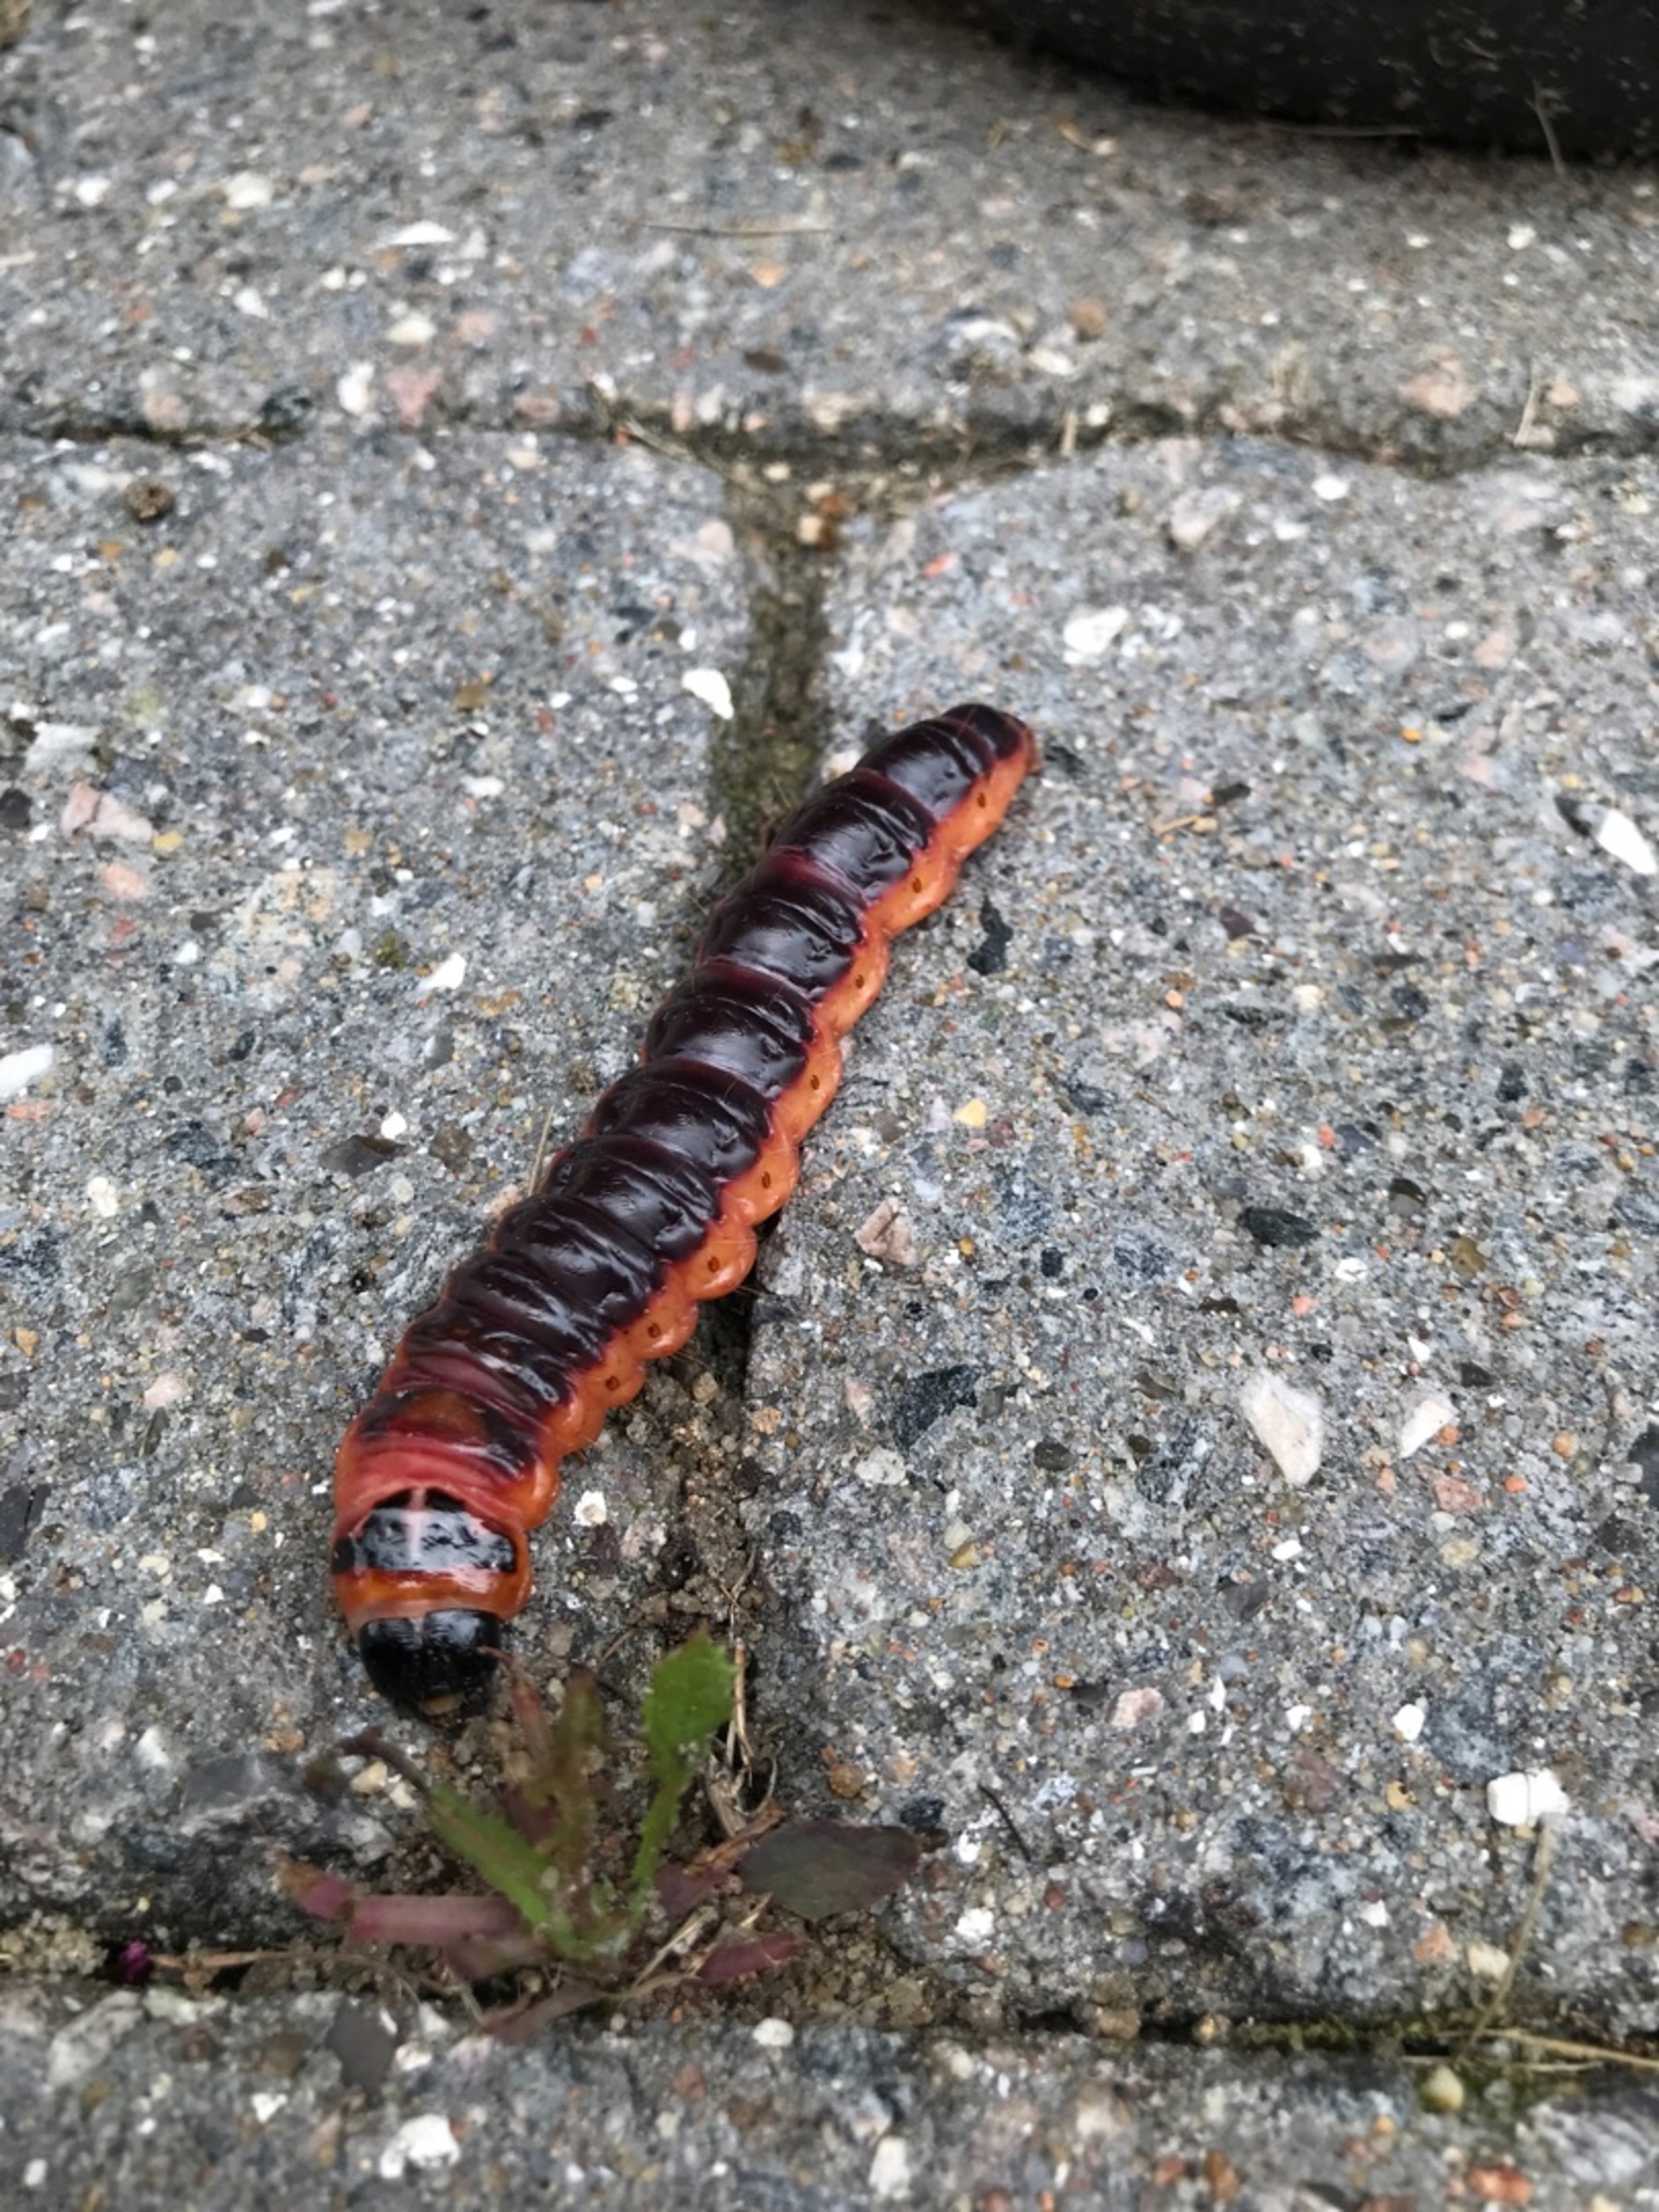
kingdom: Animalia
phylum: Arthropoda
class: Insecta
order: Lepidoptera
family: Cossidae
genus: Cossus
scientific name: Cossus cossus
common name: Pileborer
